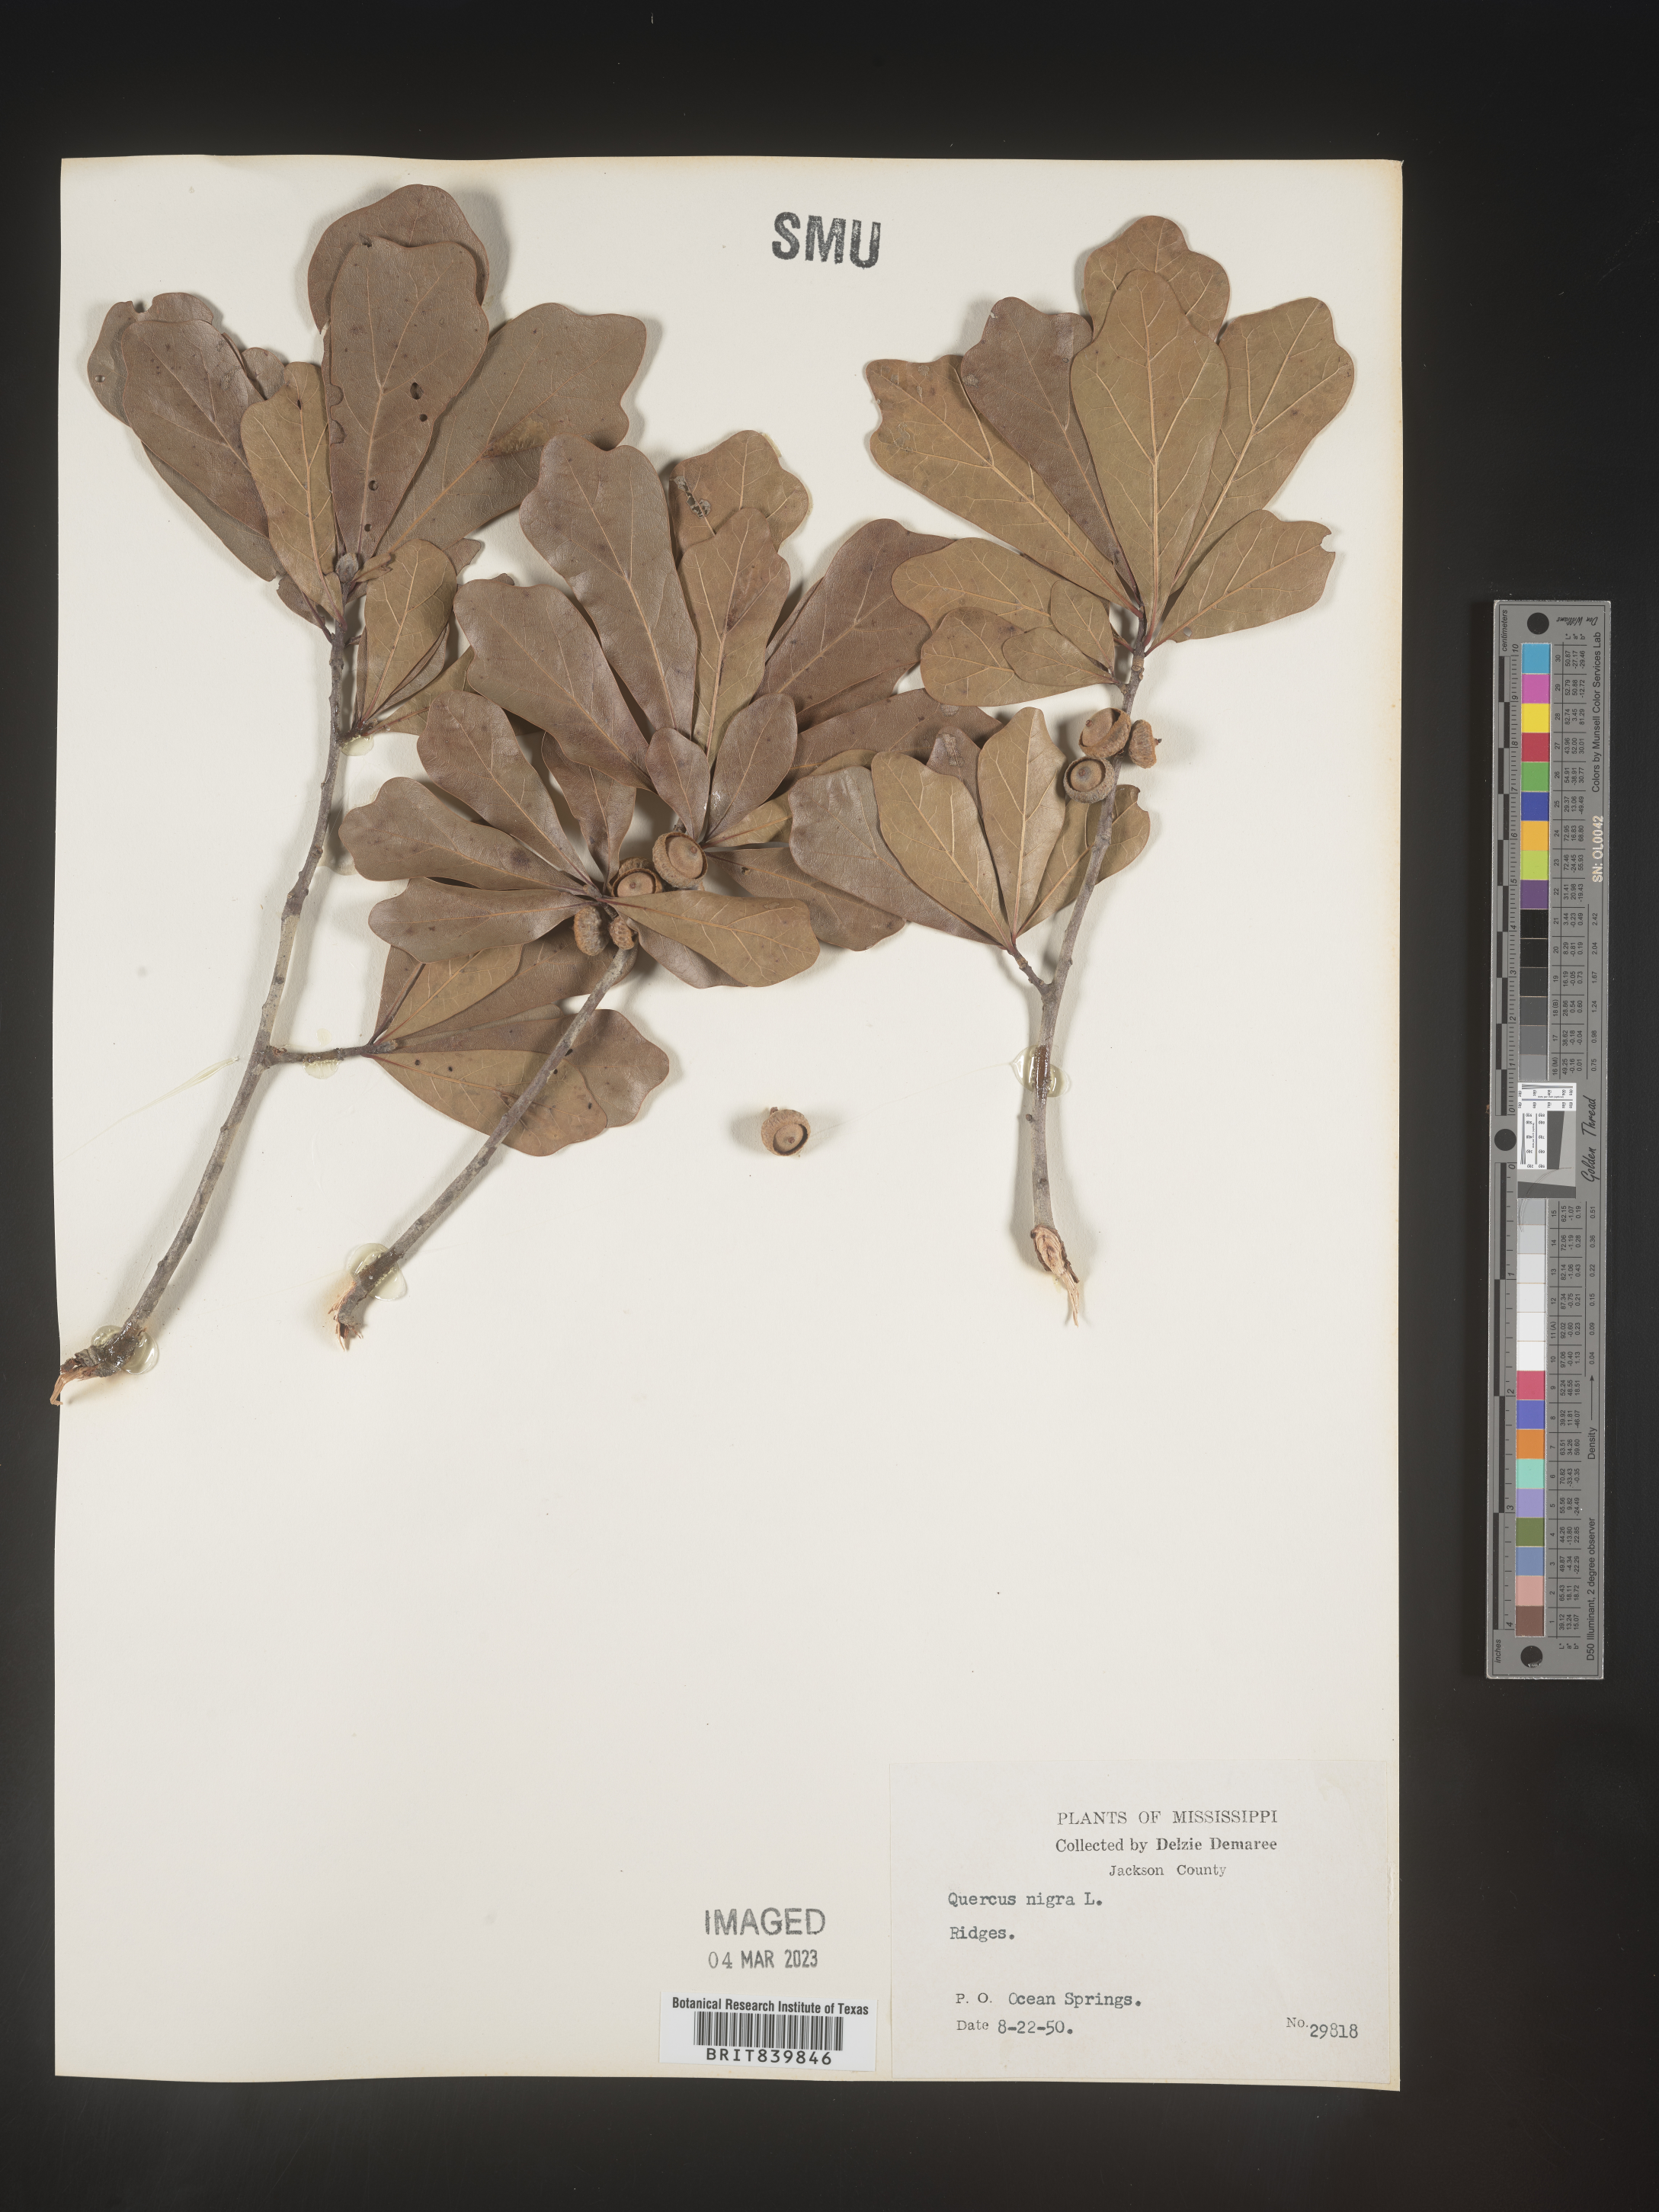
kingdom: Plantae
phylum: Tracheophyta
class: Magnoliopsida
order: Fagales
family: Fagaceae
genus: Quercus
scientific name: Quercus nigra
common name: Water oak
